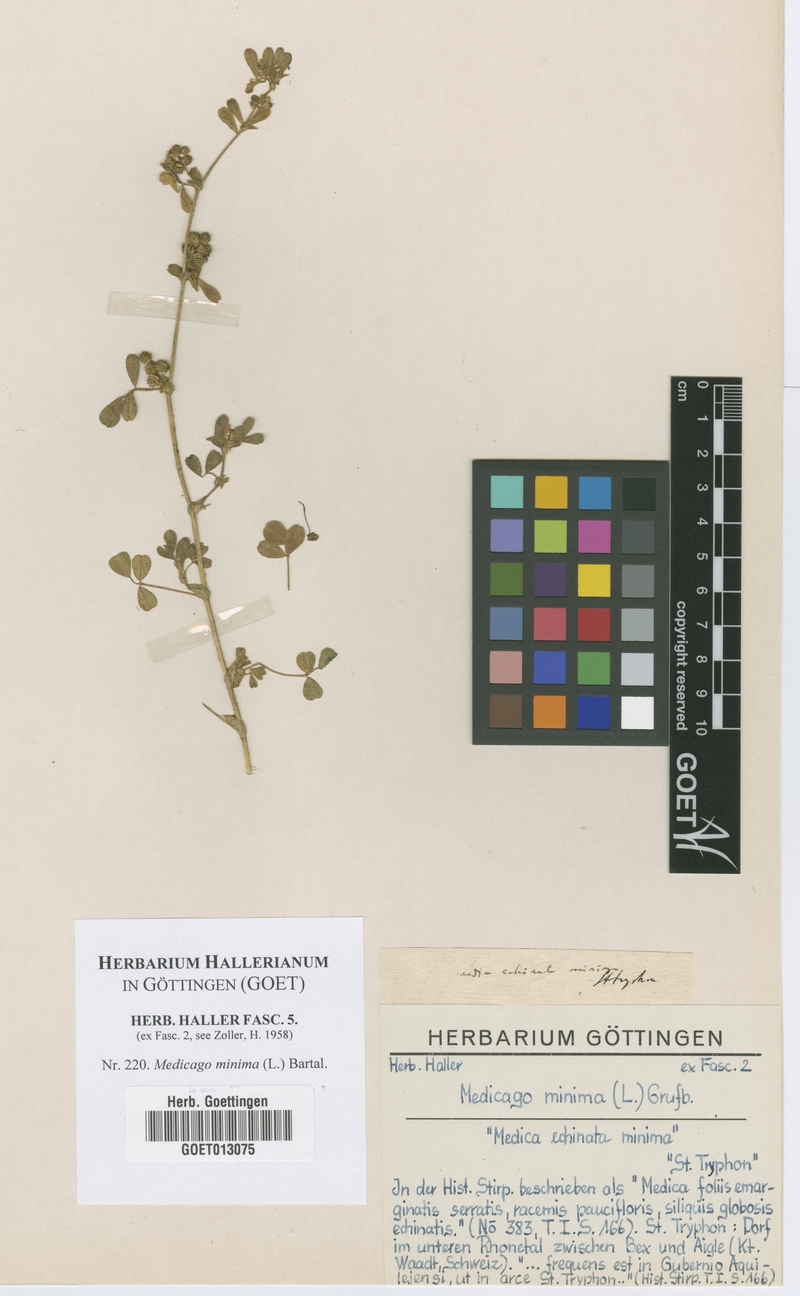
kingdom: Plantae
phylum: Tracheophyta
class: Magnoliopsida
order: Fabales
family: Fabaceae
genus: Medicago
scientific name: Medicago minima
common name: Little bur-clover
